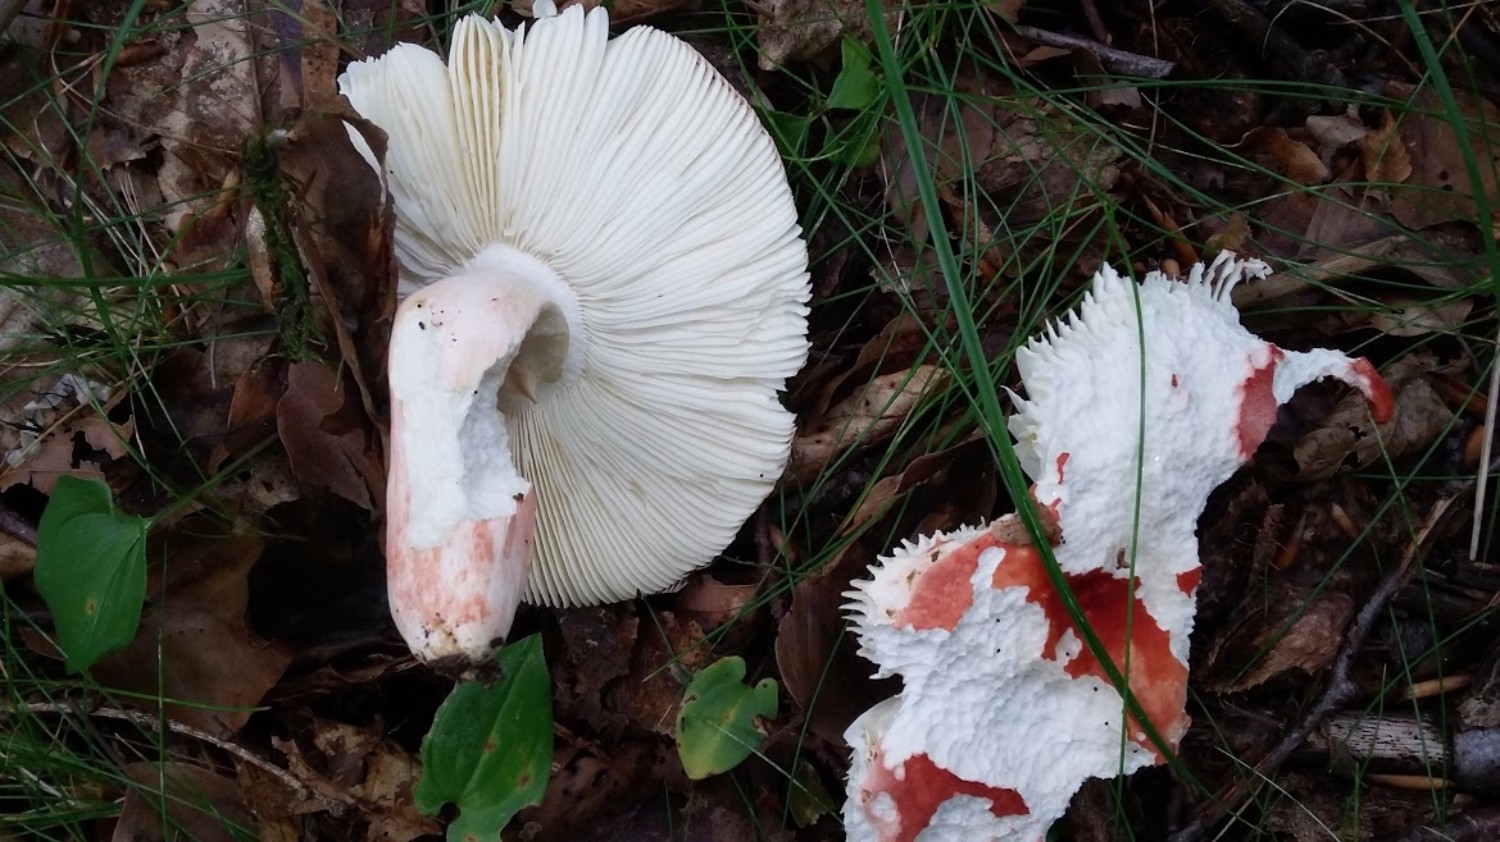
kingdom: Fungi
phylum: Basidiomycota
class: Agaricomycetes
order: Russulales
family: Russulaceae
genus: Russula
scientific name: Russula rosea
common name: fastkødet skørhat
